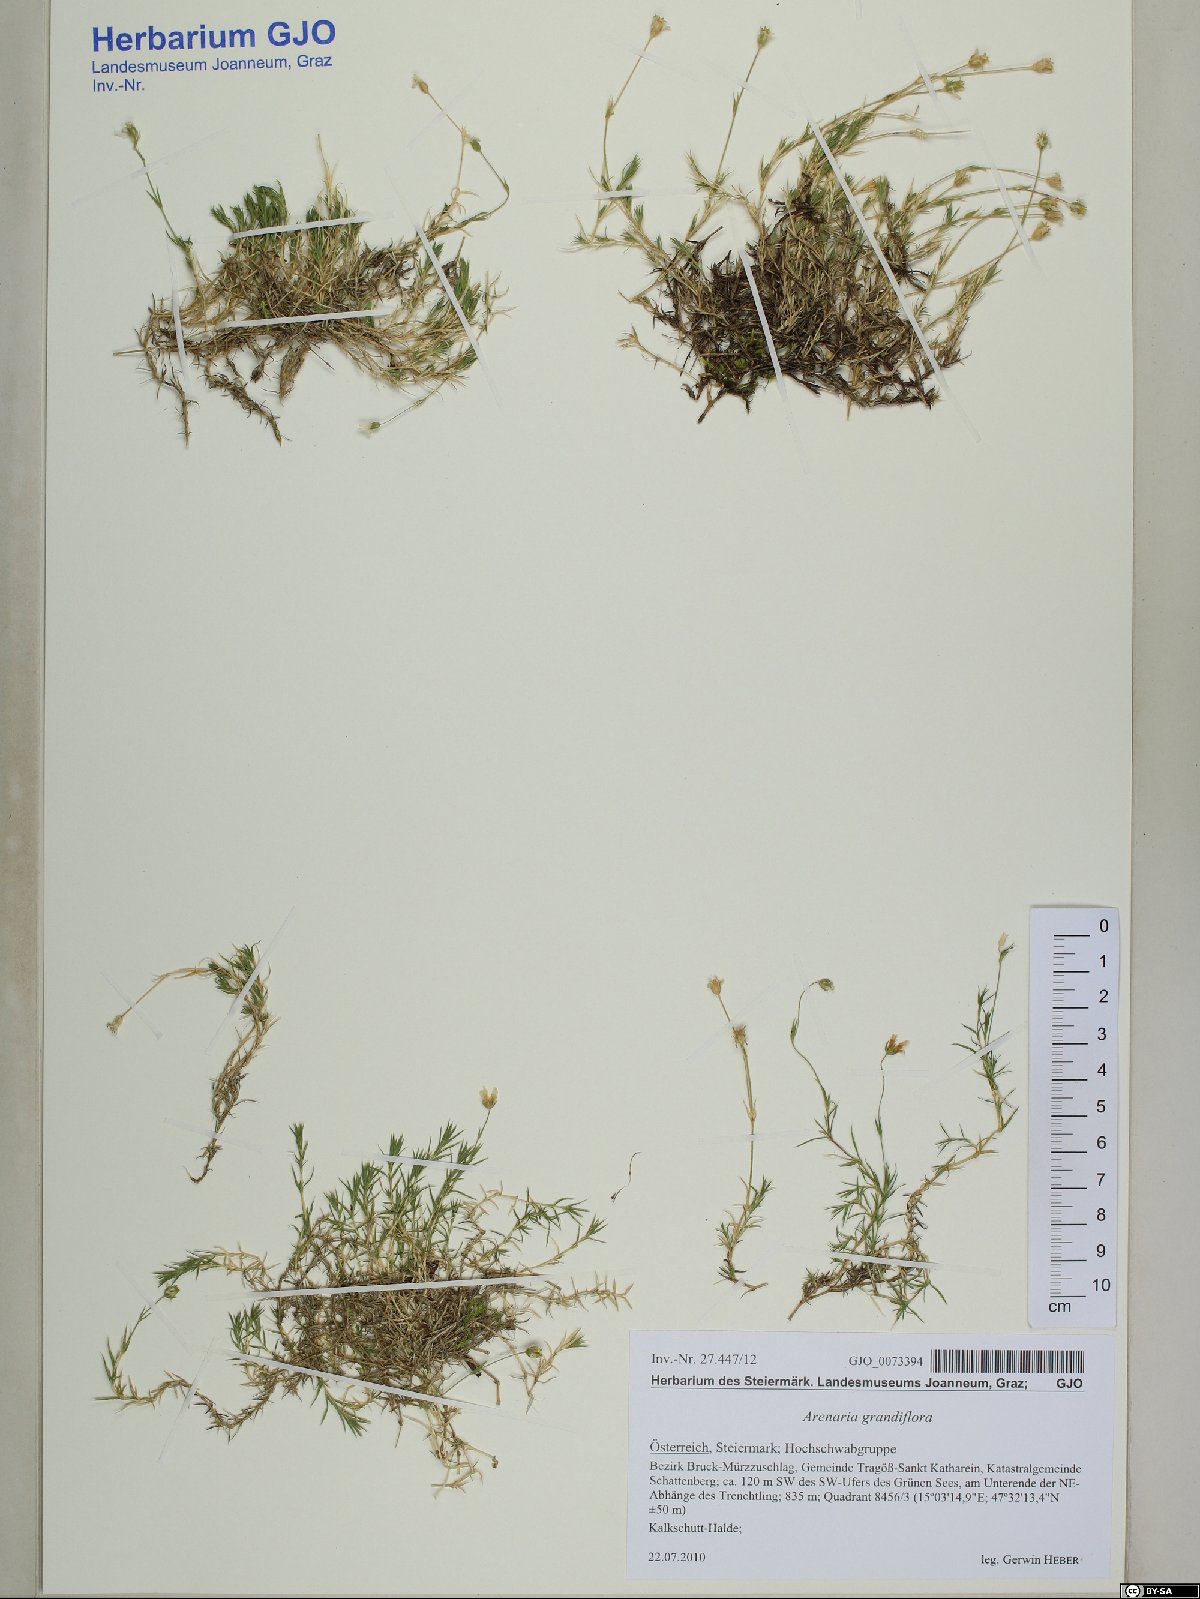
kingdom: Plantae
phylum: Tracheophyta
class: Magnoliopsida
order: Caryophyllales
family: Caryophyllaceae
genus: Arenaria
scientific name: Arenaria grandiflora
